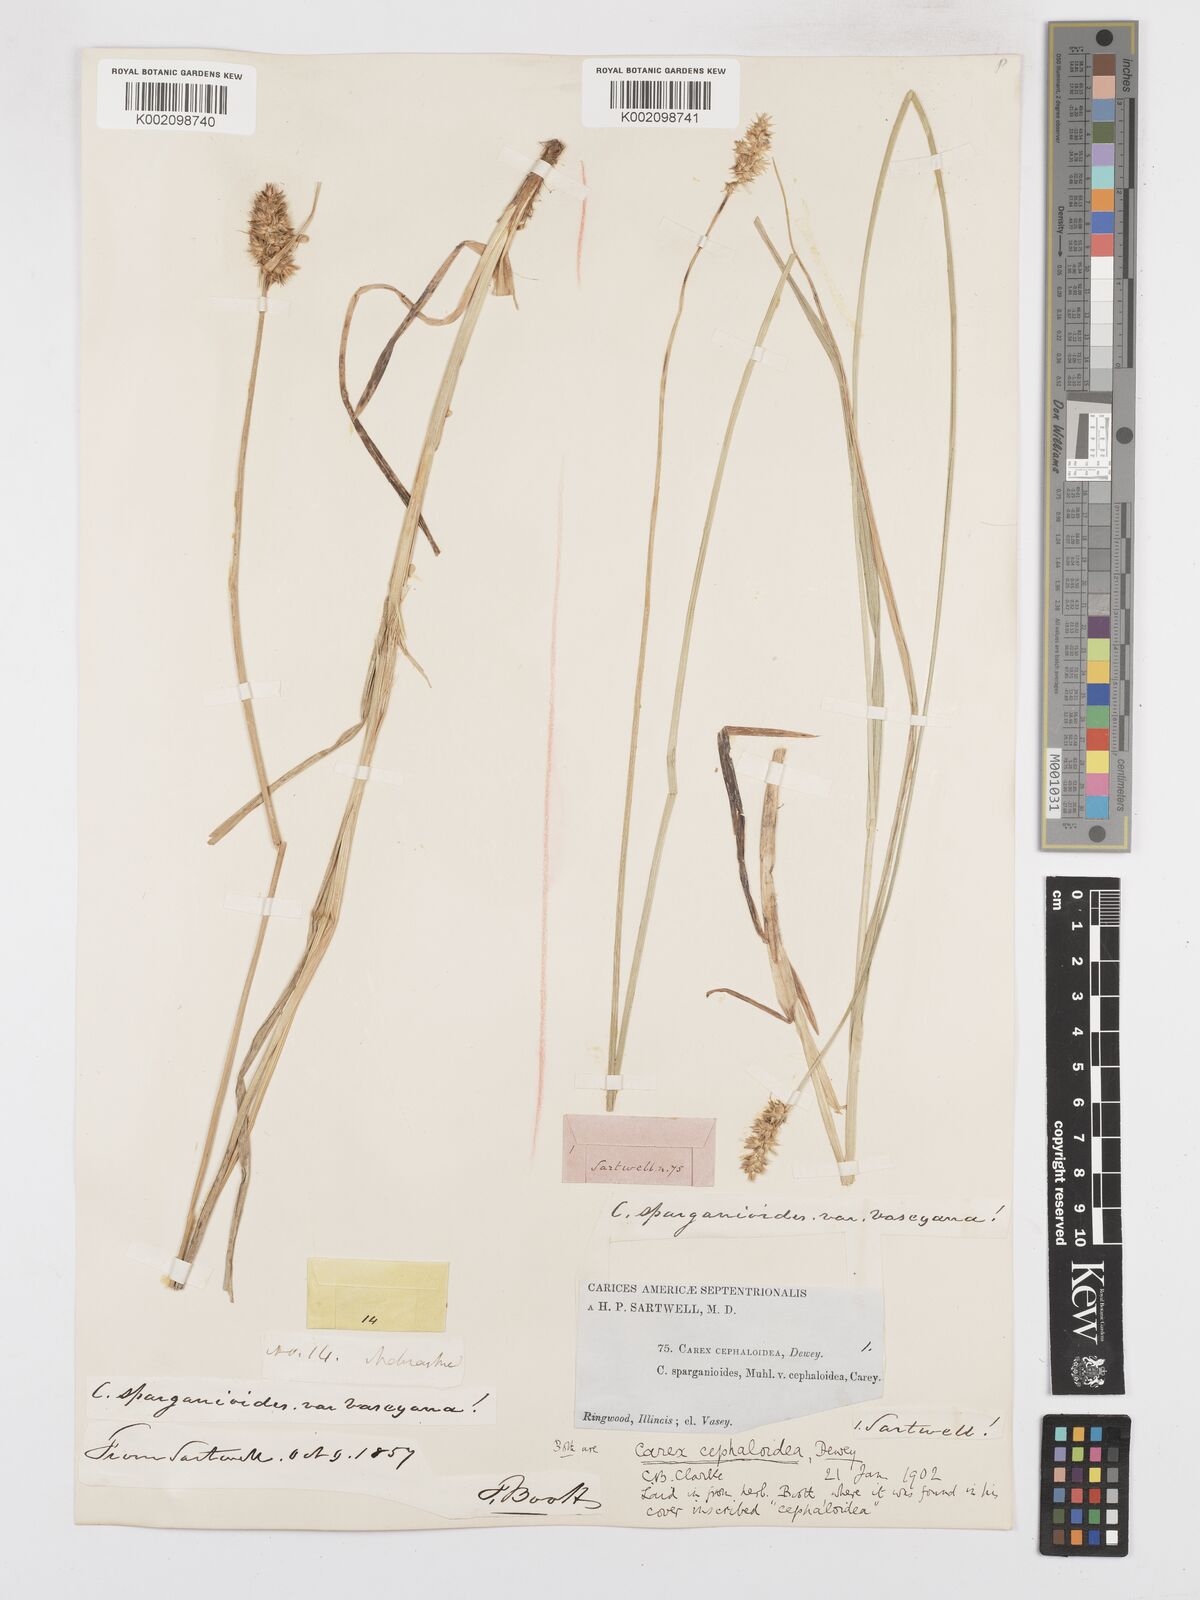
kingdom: Plantae
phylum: Tracheophyta
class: Liliopsida
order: Poales
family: Cyperaceae
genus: Carex
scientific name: Carex cephaloidea
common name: Thin-leaved sedge
